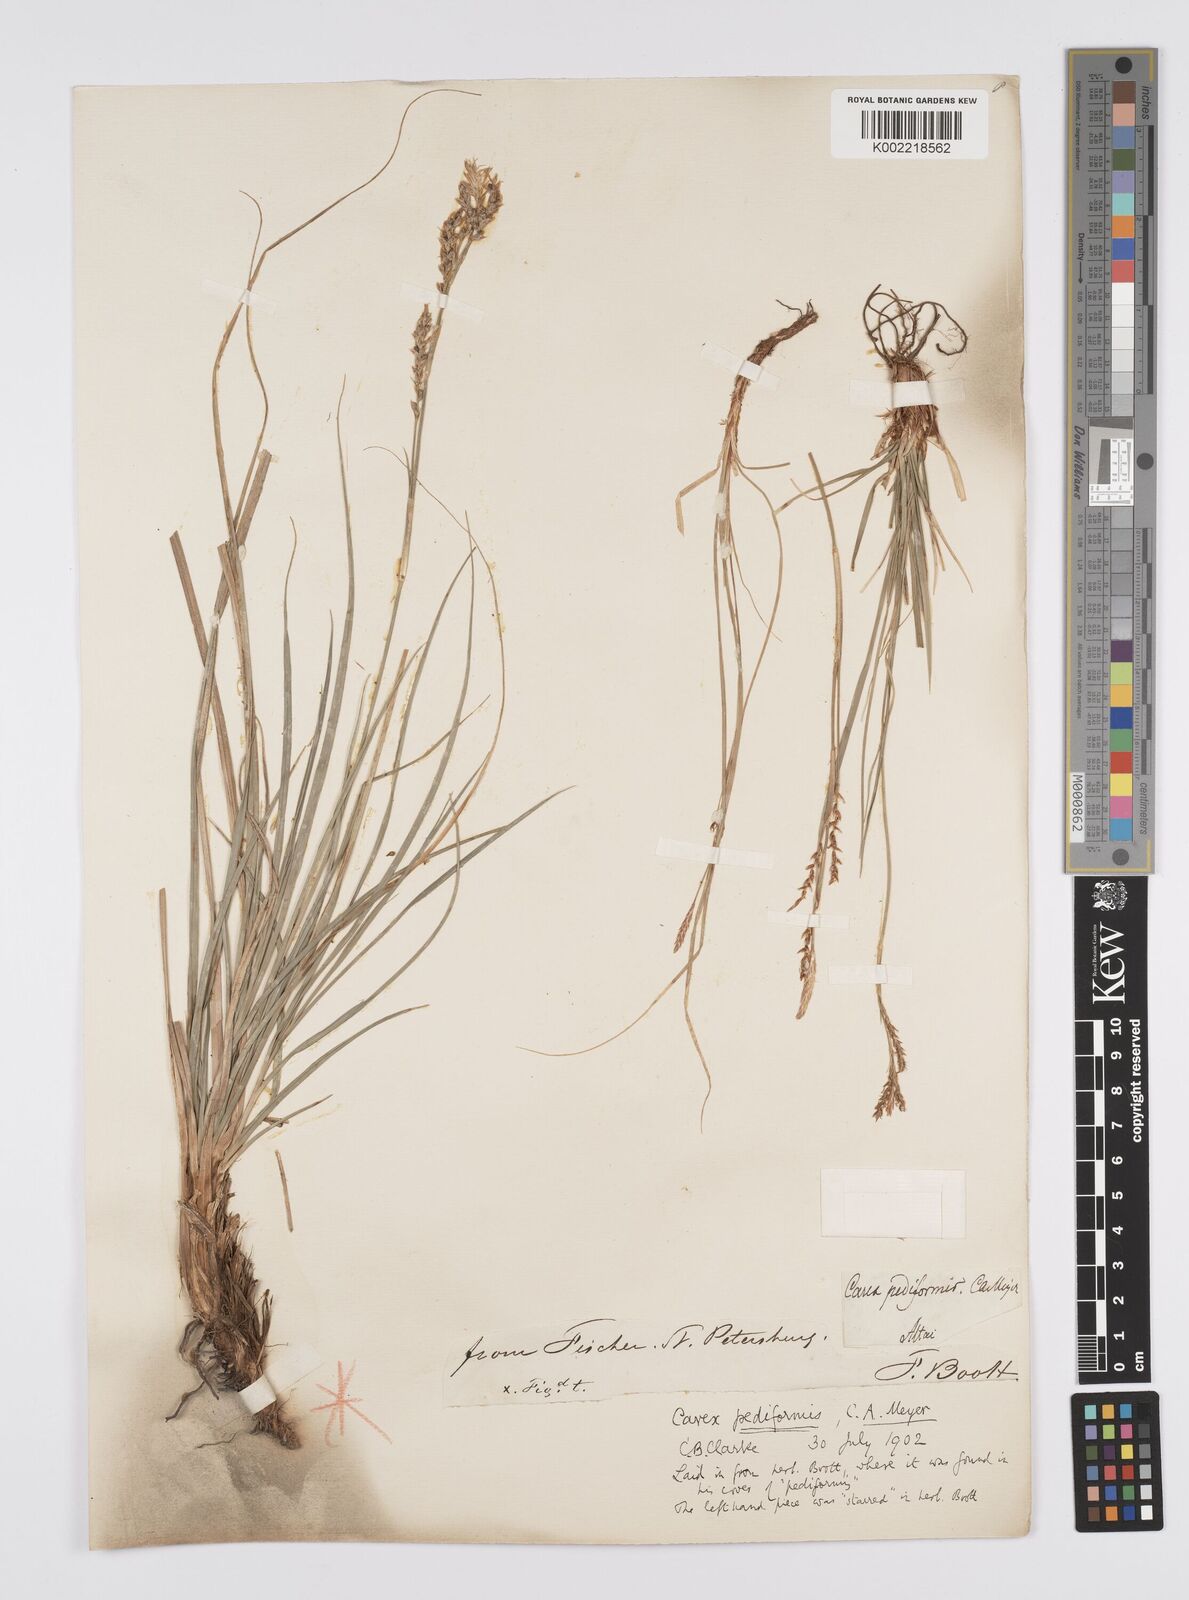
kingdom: Plantae
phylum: Tracheophyta
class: Liliopsida
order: Poales
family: Cyperaceae
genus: Carex
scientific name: Carex pediformis
